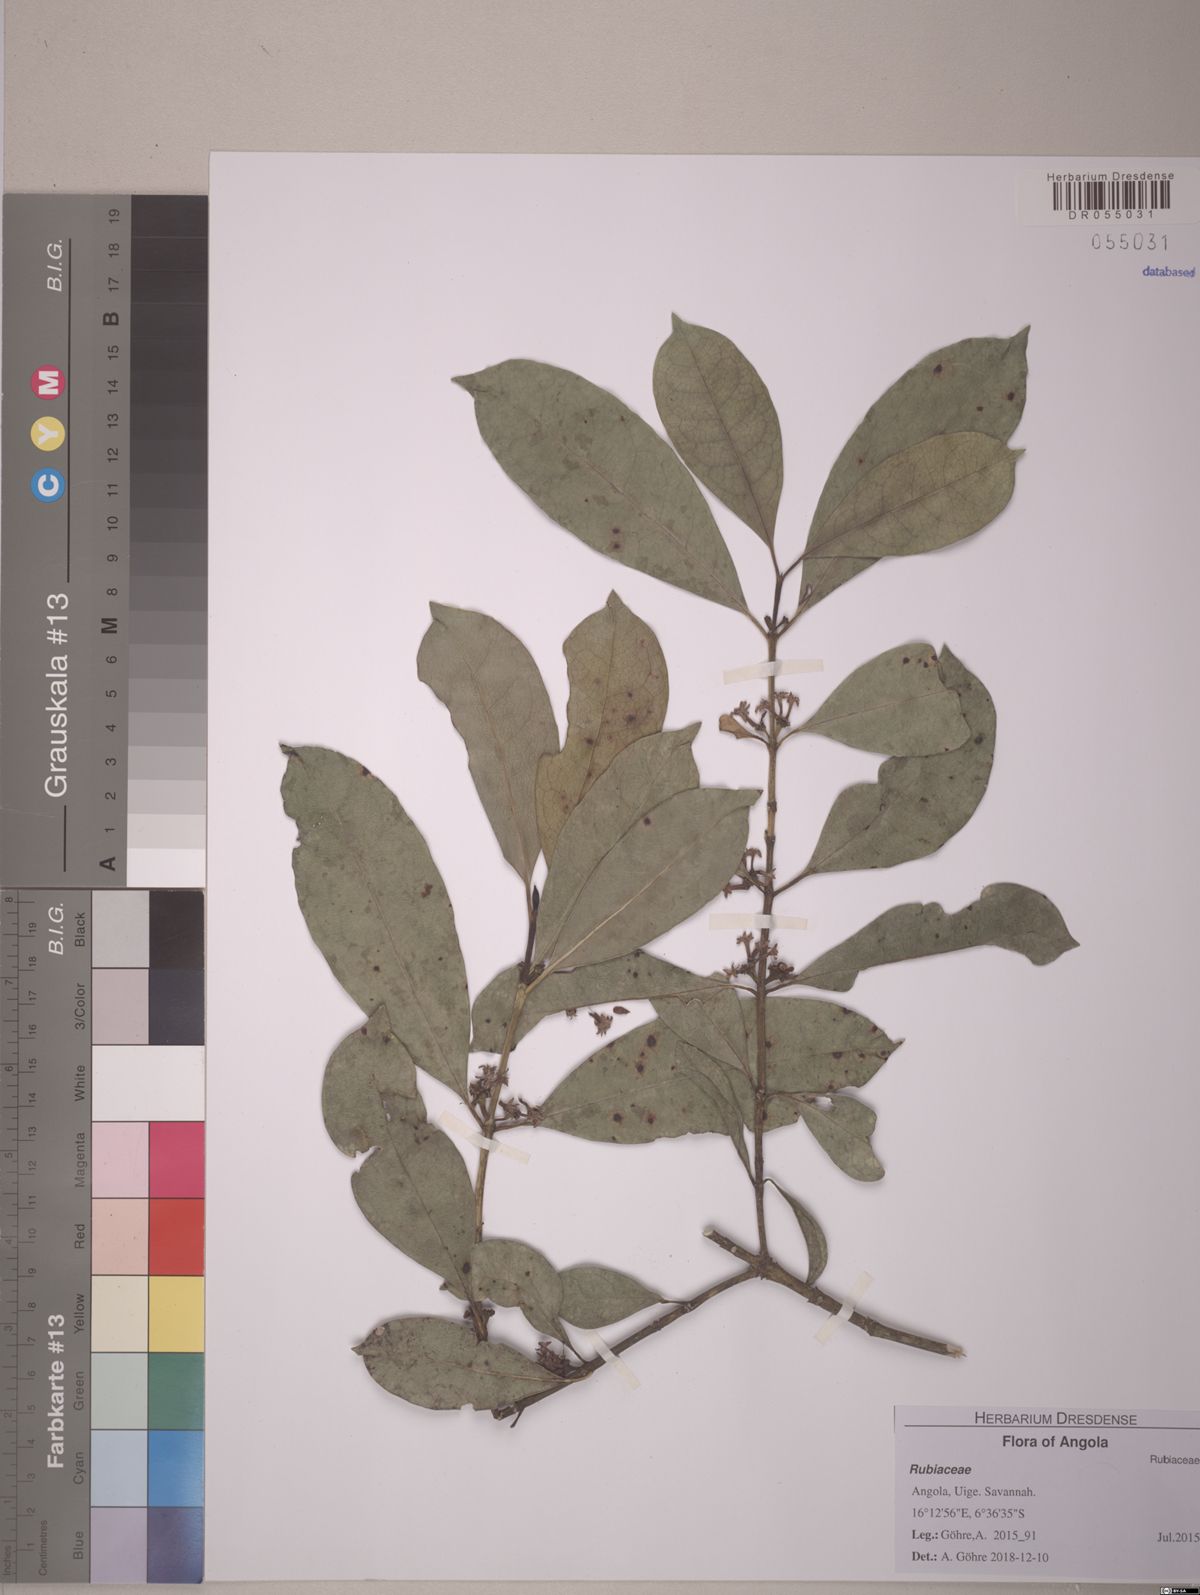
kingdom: Plantae
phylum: Tracheophyta
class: Magnoliopsida
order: Gentianales
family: Rubiaceae
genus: Craterispermum
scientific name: Craterispermum schweinfurthii
